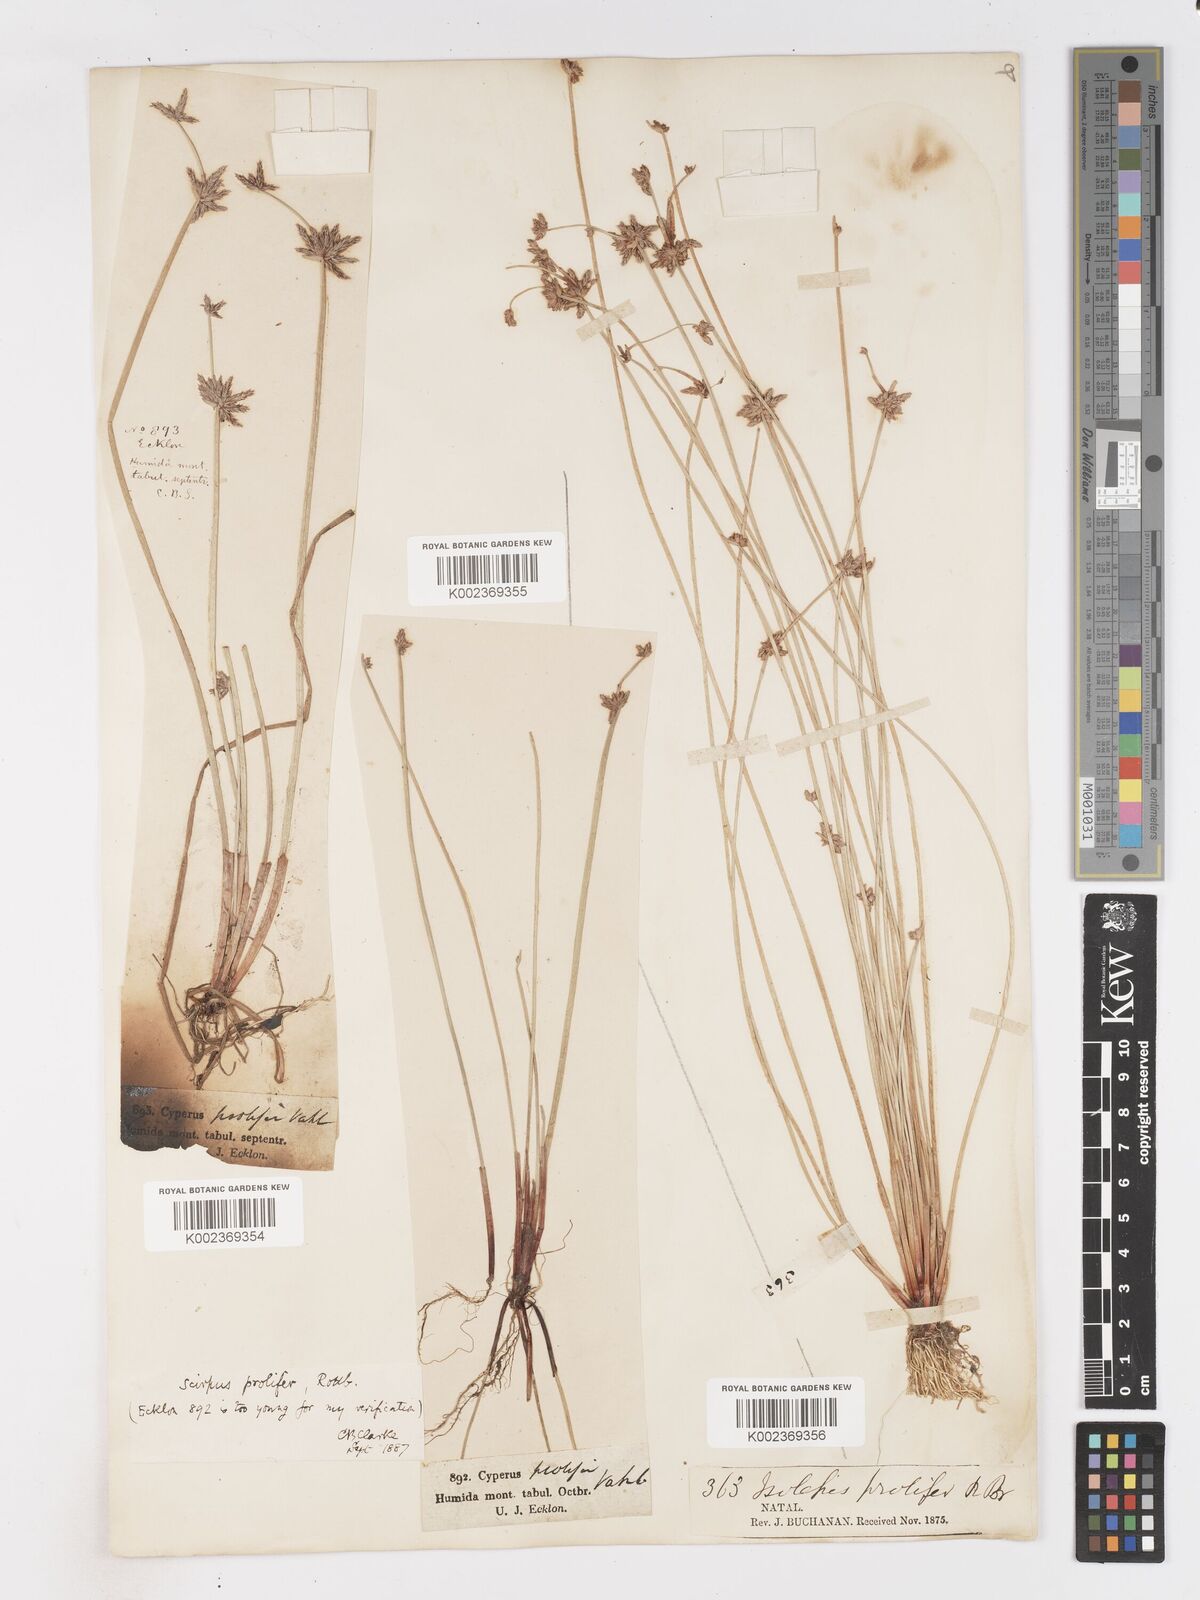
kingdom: Plantae
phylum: Tracheophyta
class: Liliopsida
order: Poales
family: Cyperaceae
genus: Isolepis
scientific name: Isolepis prolifera
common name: Proliferating bulrush
